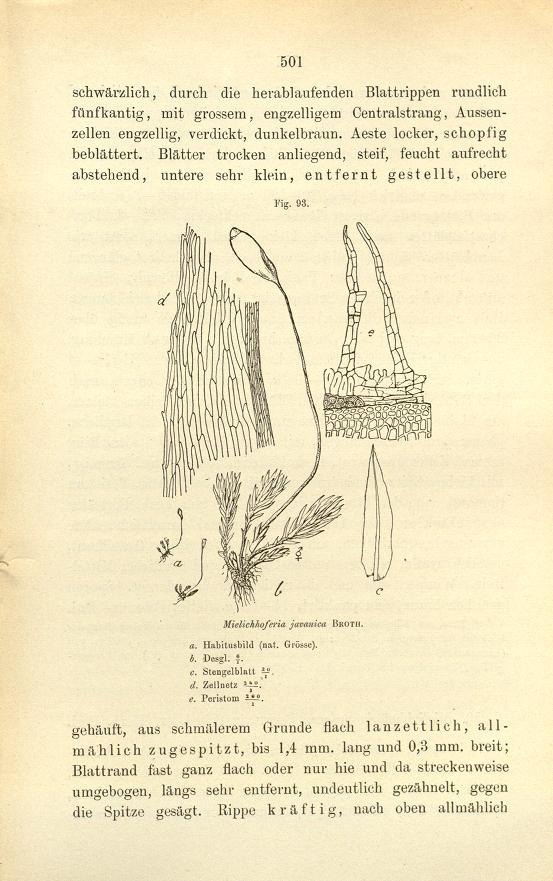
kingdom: Plantae
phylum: Bryophyta
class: Bryopsida
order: Bryales
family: Mniaceae
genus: Schizymenium
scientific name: Schizymenium javanicum
